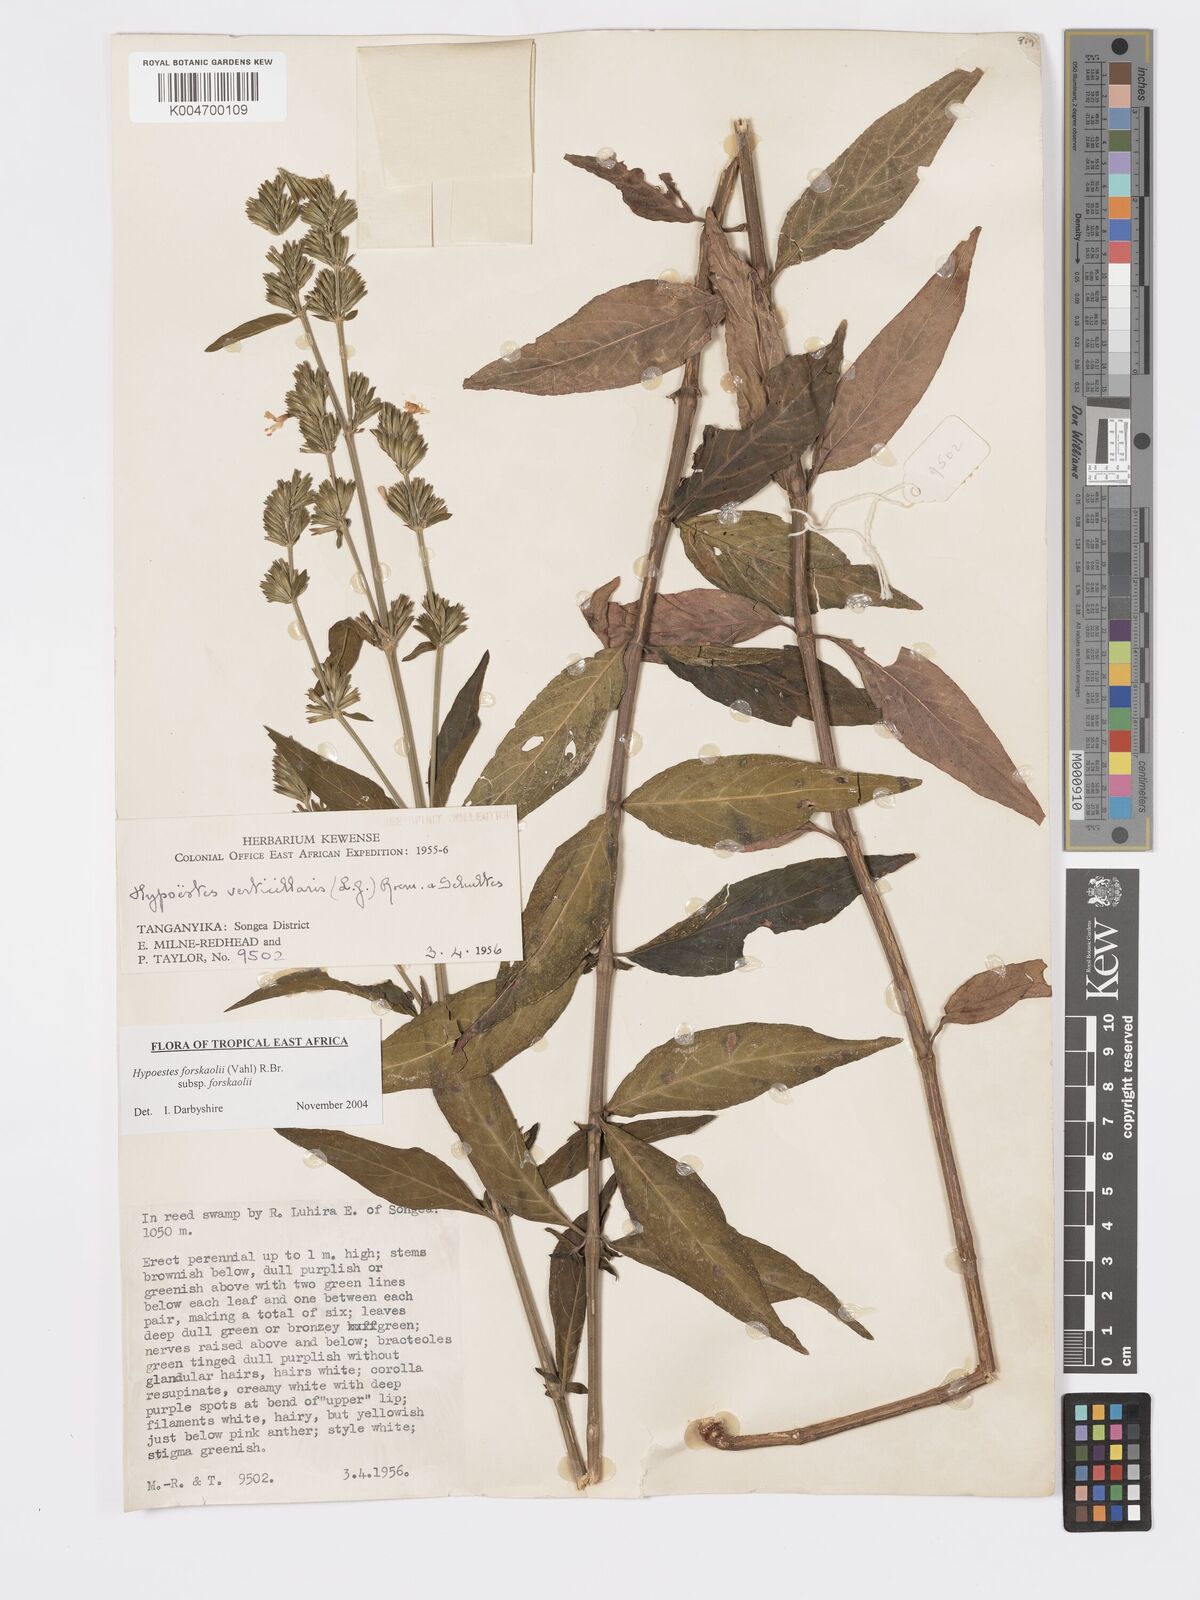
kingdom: Plantae
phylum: Tracheophyta
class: Magnoliopsida
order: Lamiales
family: Acanthaceae
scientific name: Acanthaceae
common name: Acanthaceae
